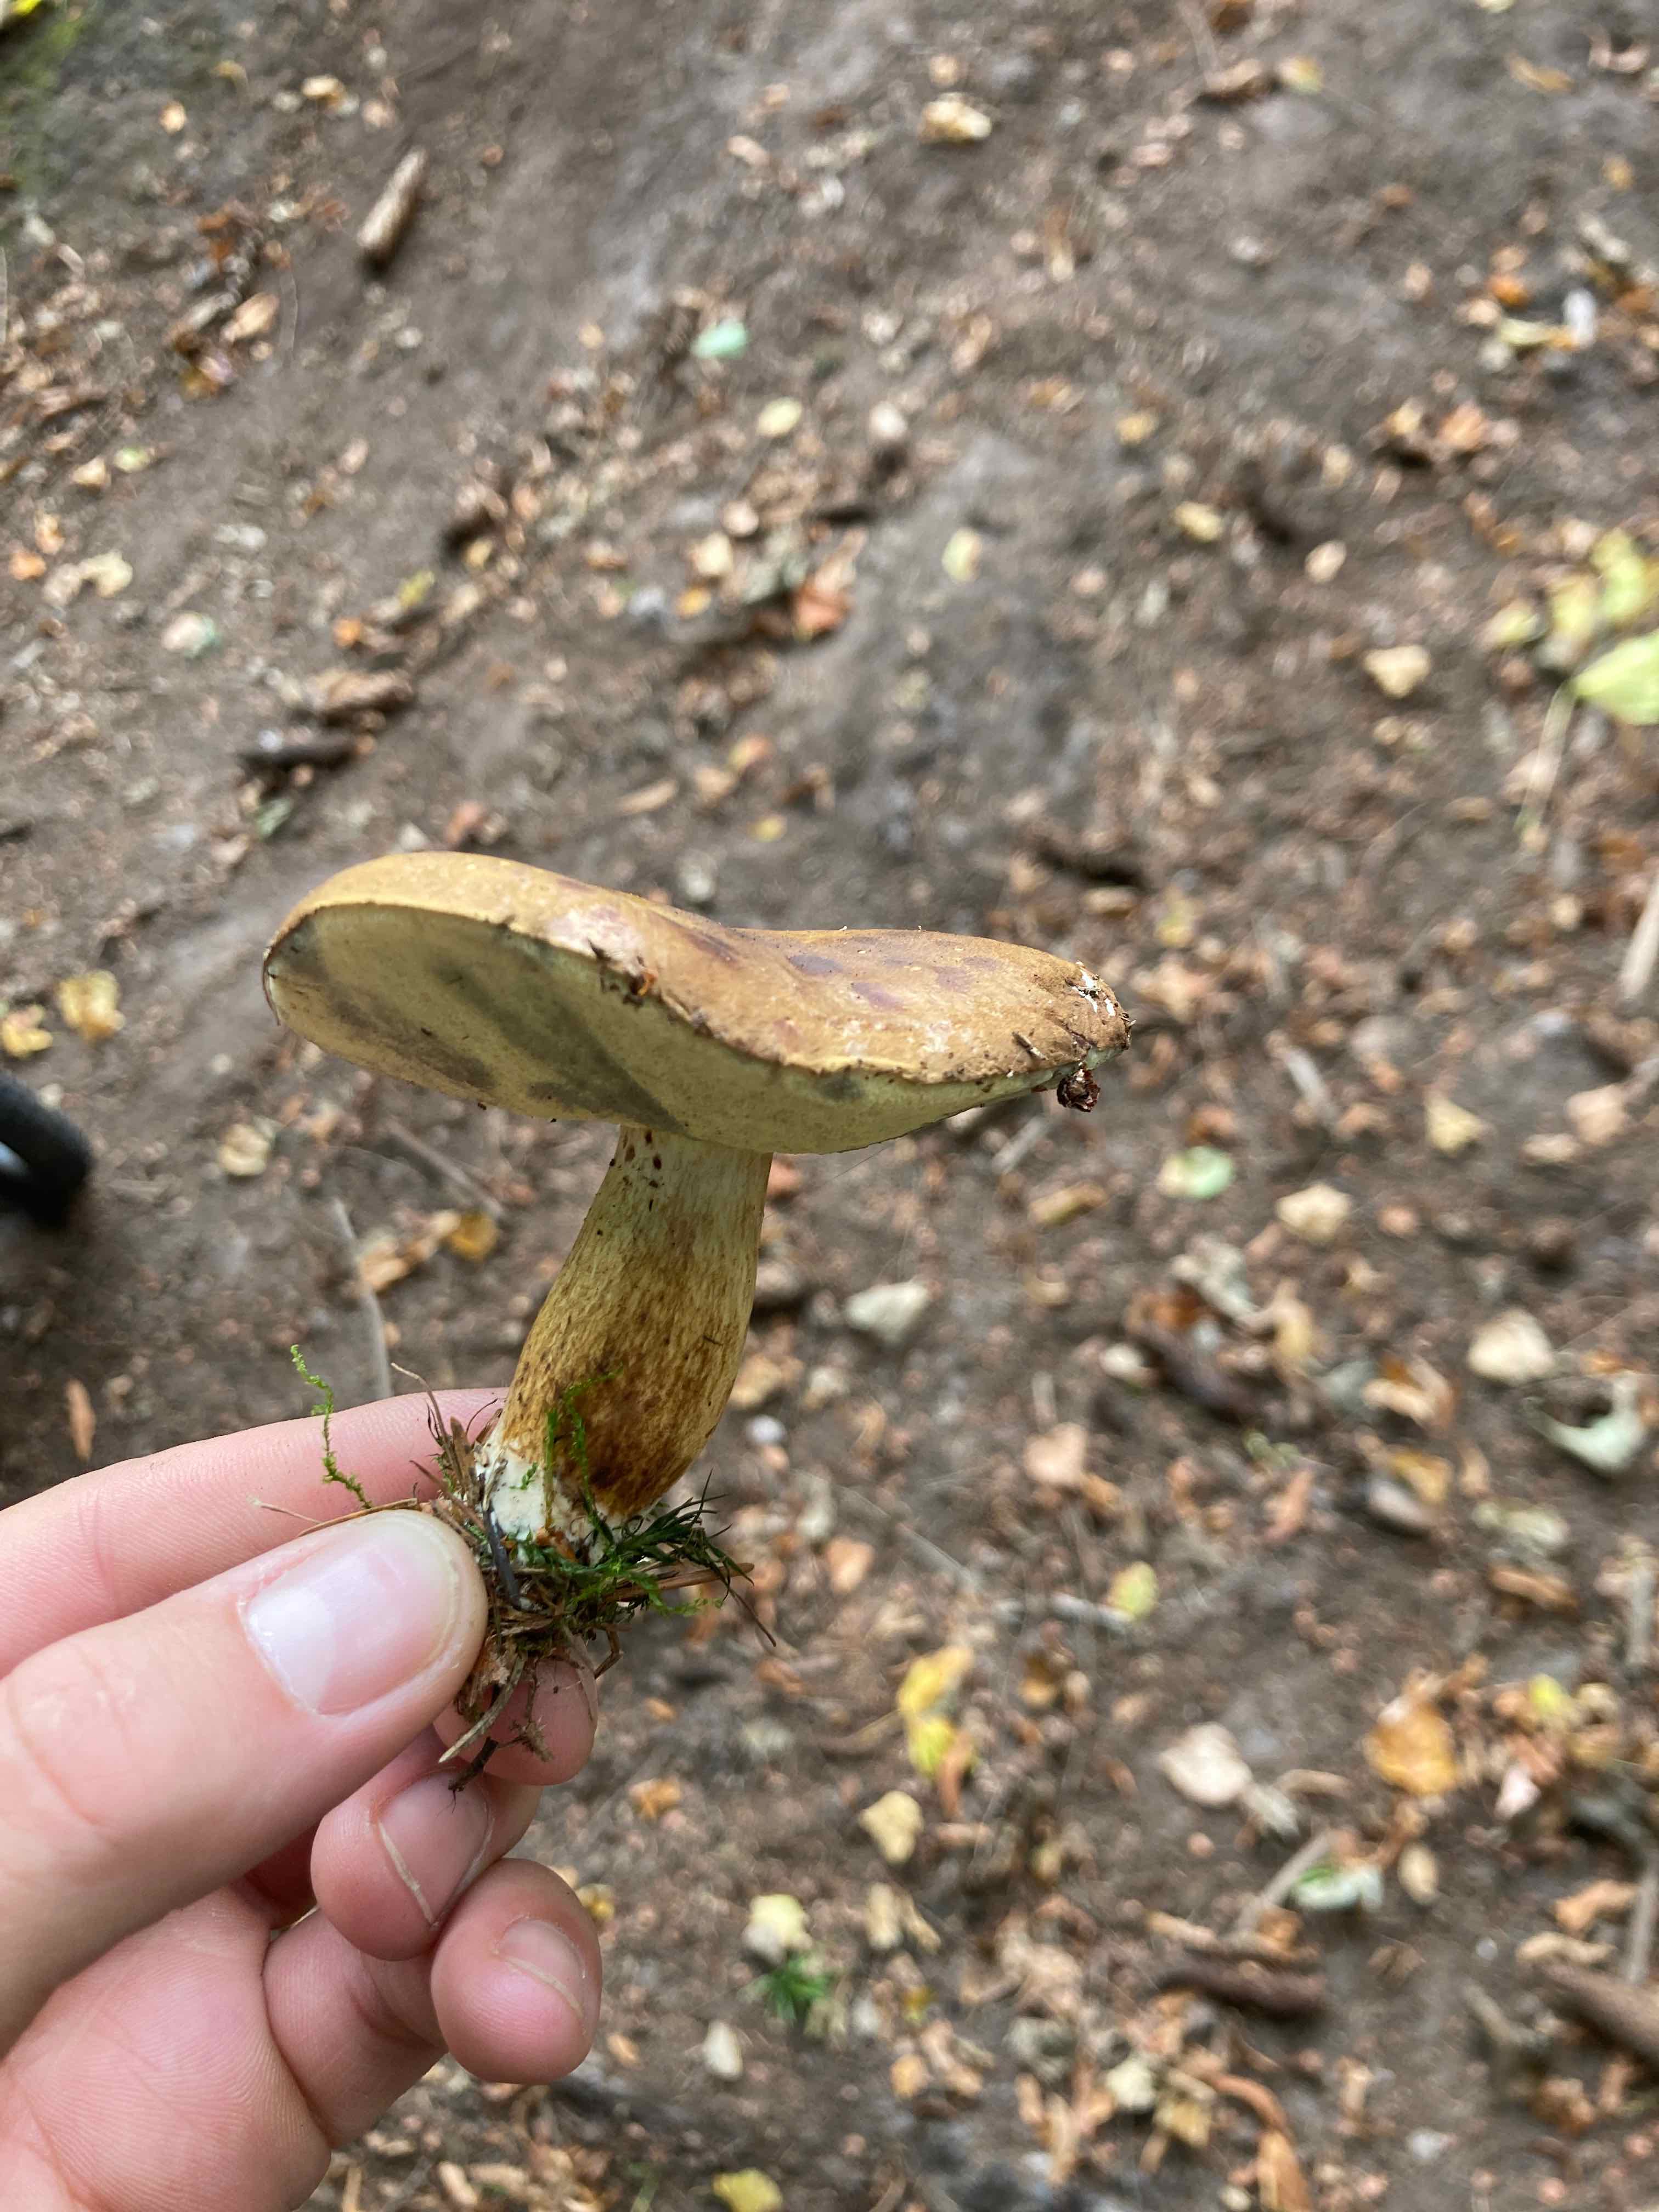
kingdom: Fungi
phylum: Basidiomycota
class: Agaricomycetes
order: Boletales
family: Boletaceae
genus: Imleria
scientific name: Imleria badia
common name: brunstokket rørhat
